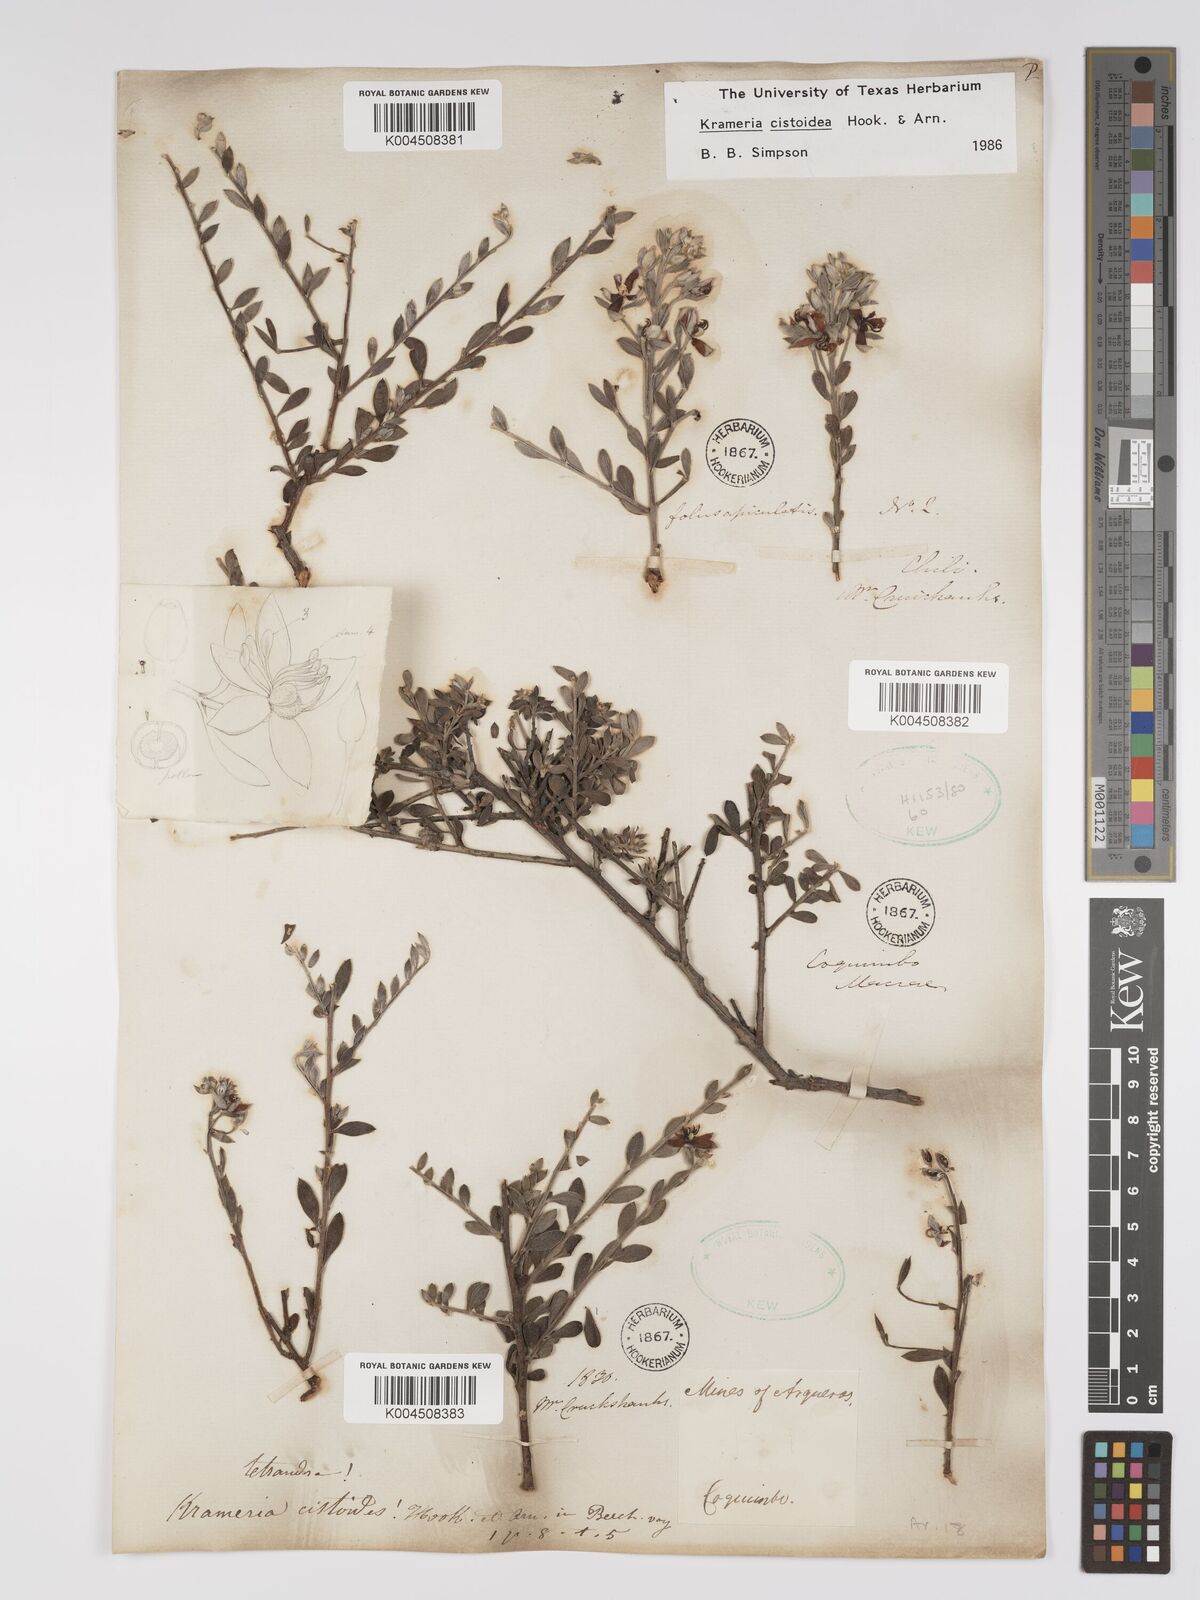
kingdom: Plantae
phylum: Tracheophyta
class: Magnoliopsida
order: Zygophyllales
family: Krameriaceae
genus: Krameria
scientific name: Krameria cistoidea
